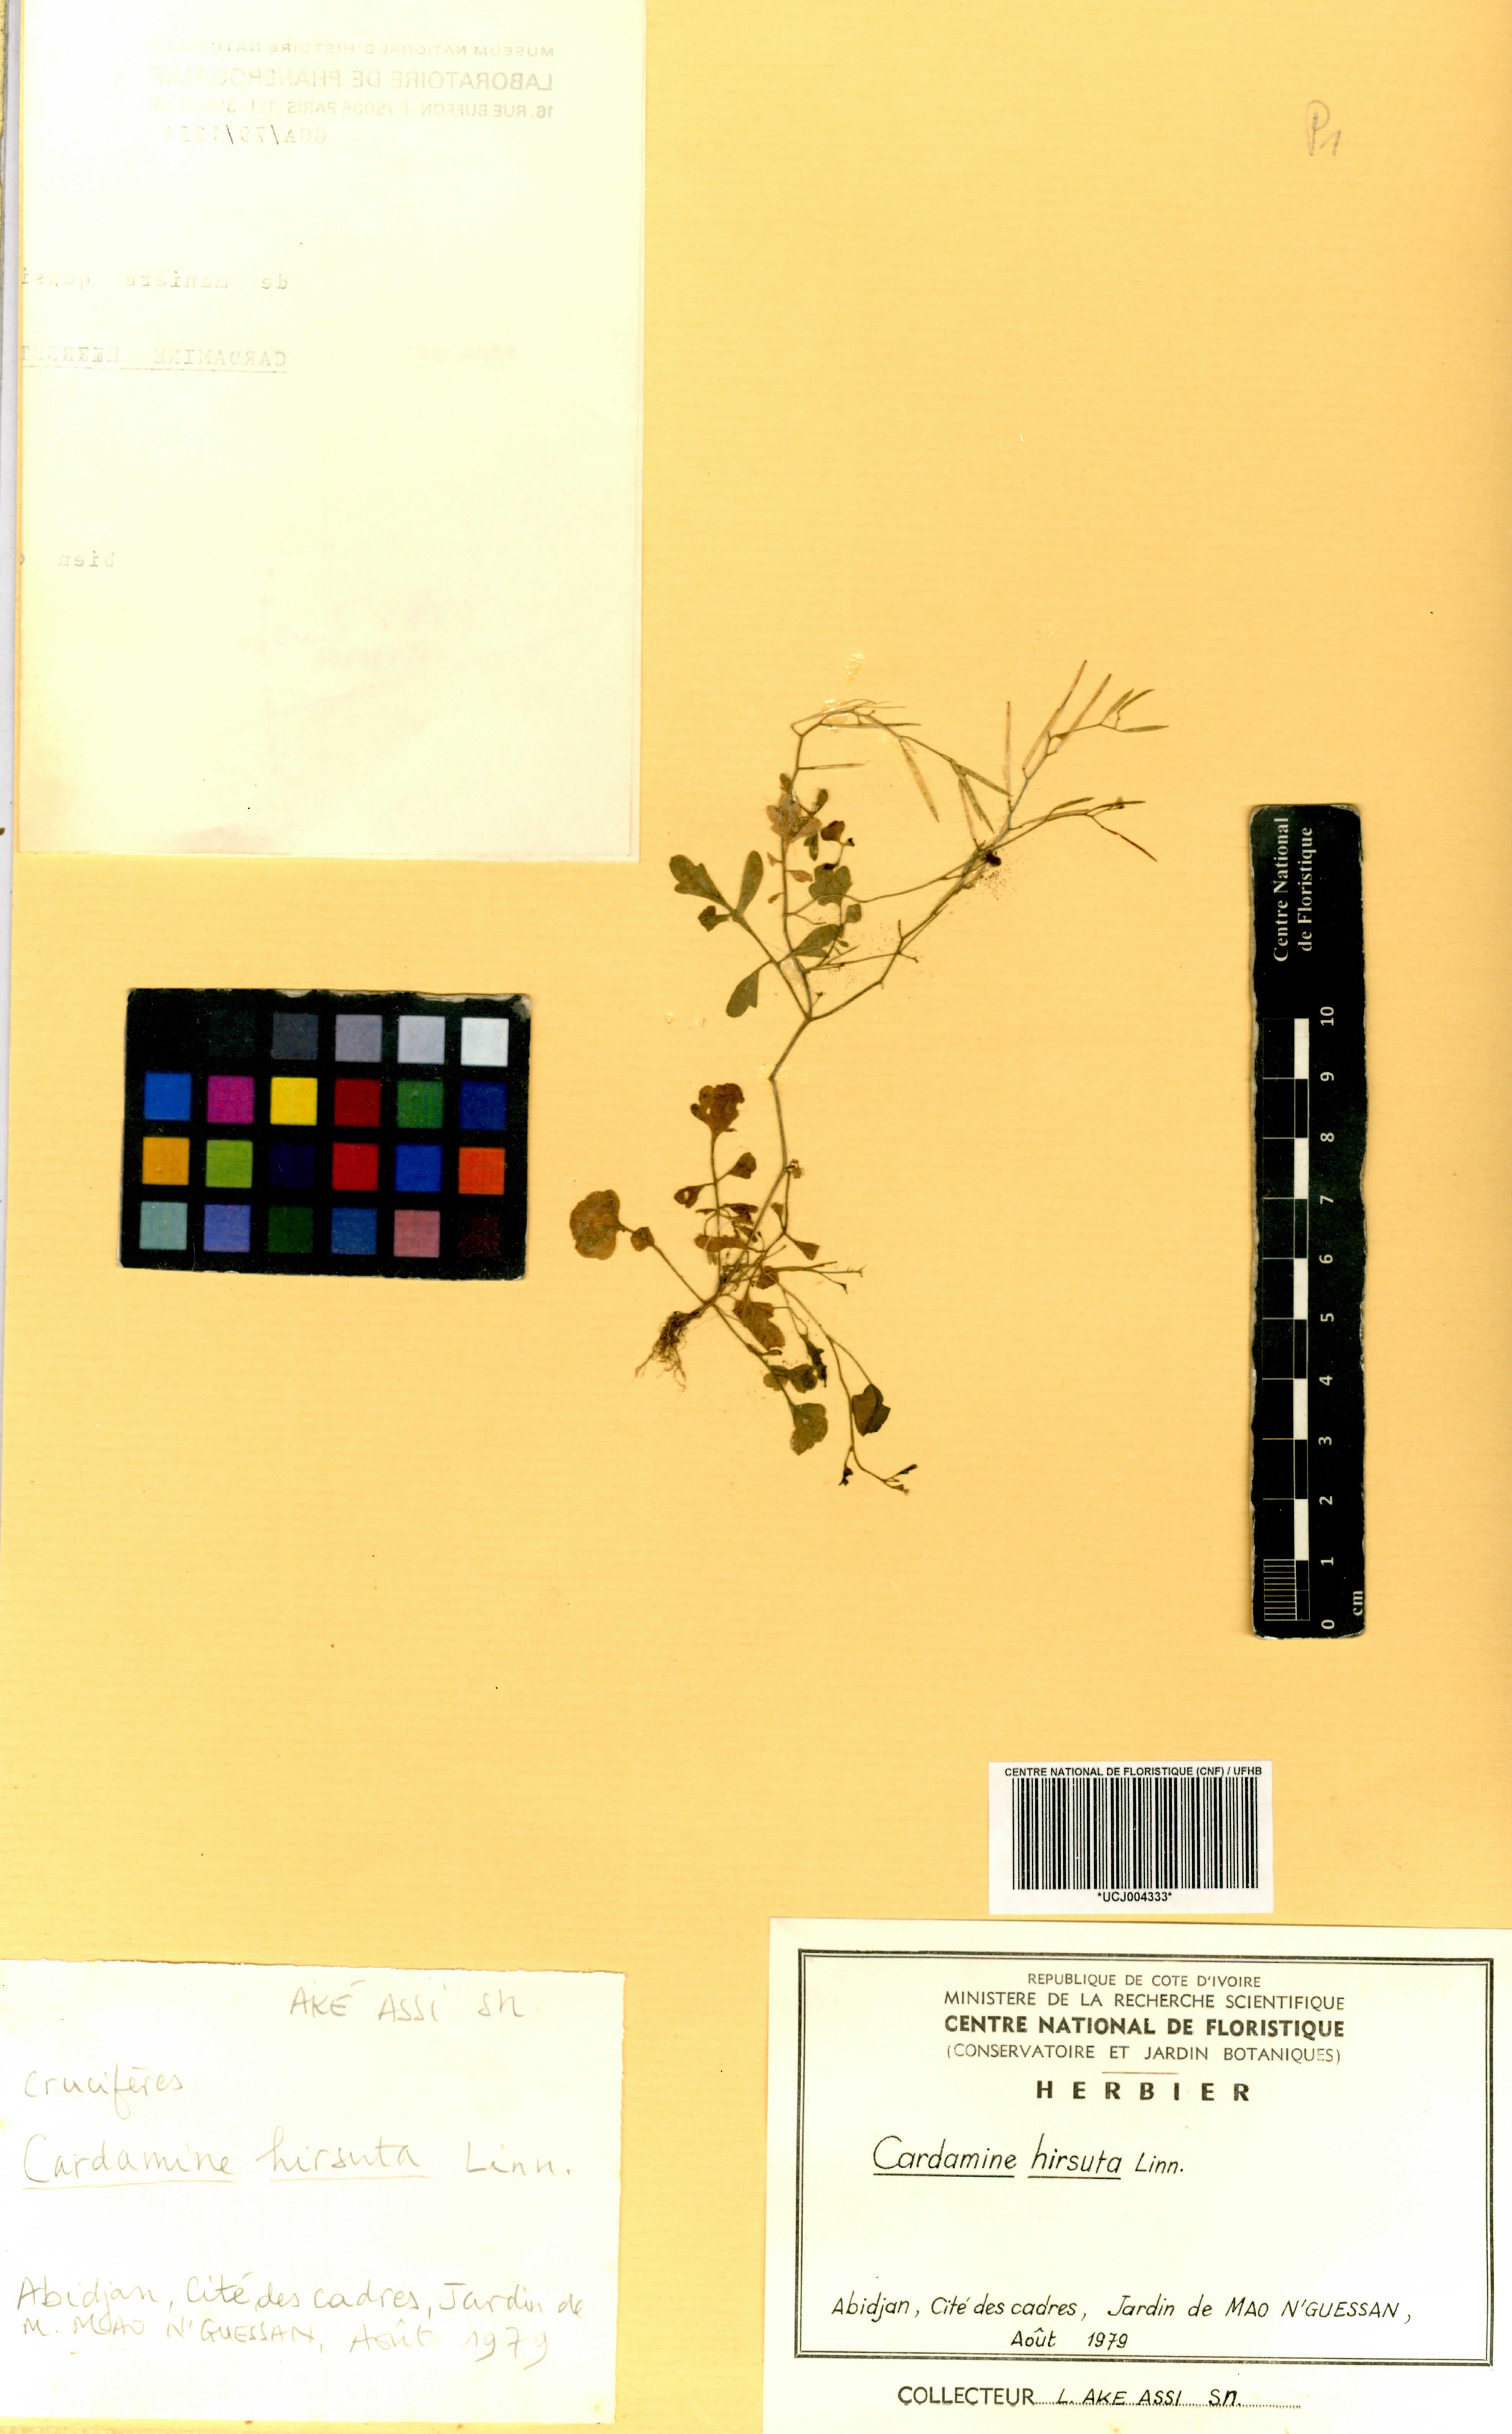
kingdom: Plantae
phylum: Tracheophyta
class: Magnoliopsida
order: Brassicales
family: Brassicaceae
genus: Cardamine
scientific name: Cardamine hirsuta
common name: Hairy bittercress
